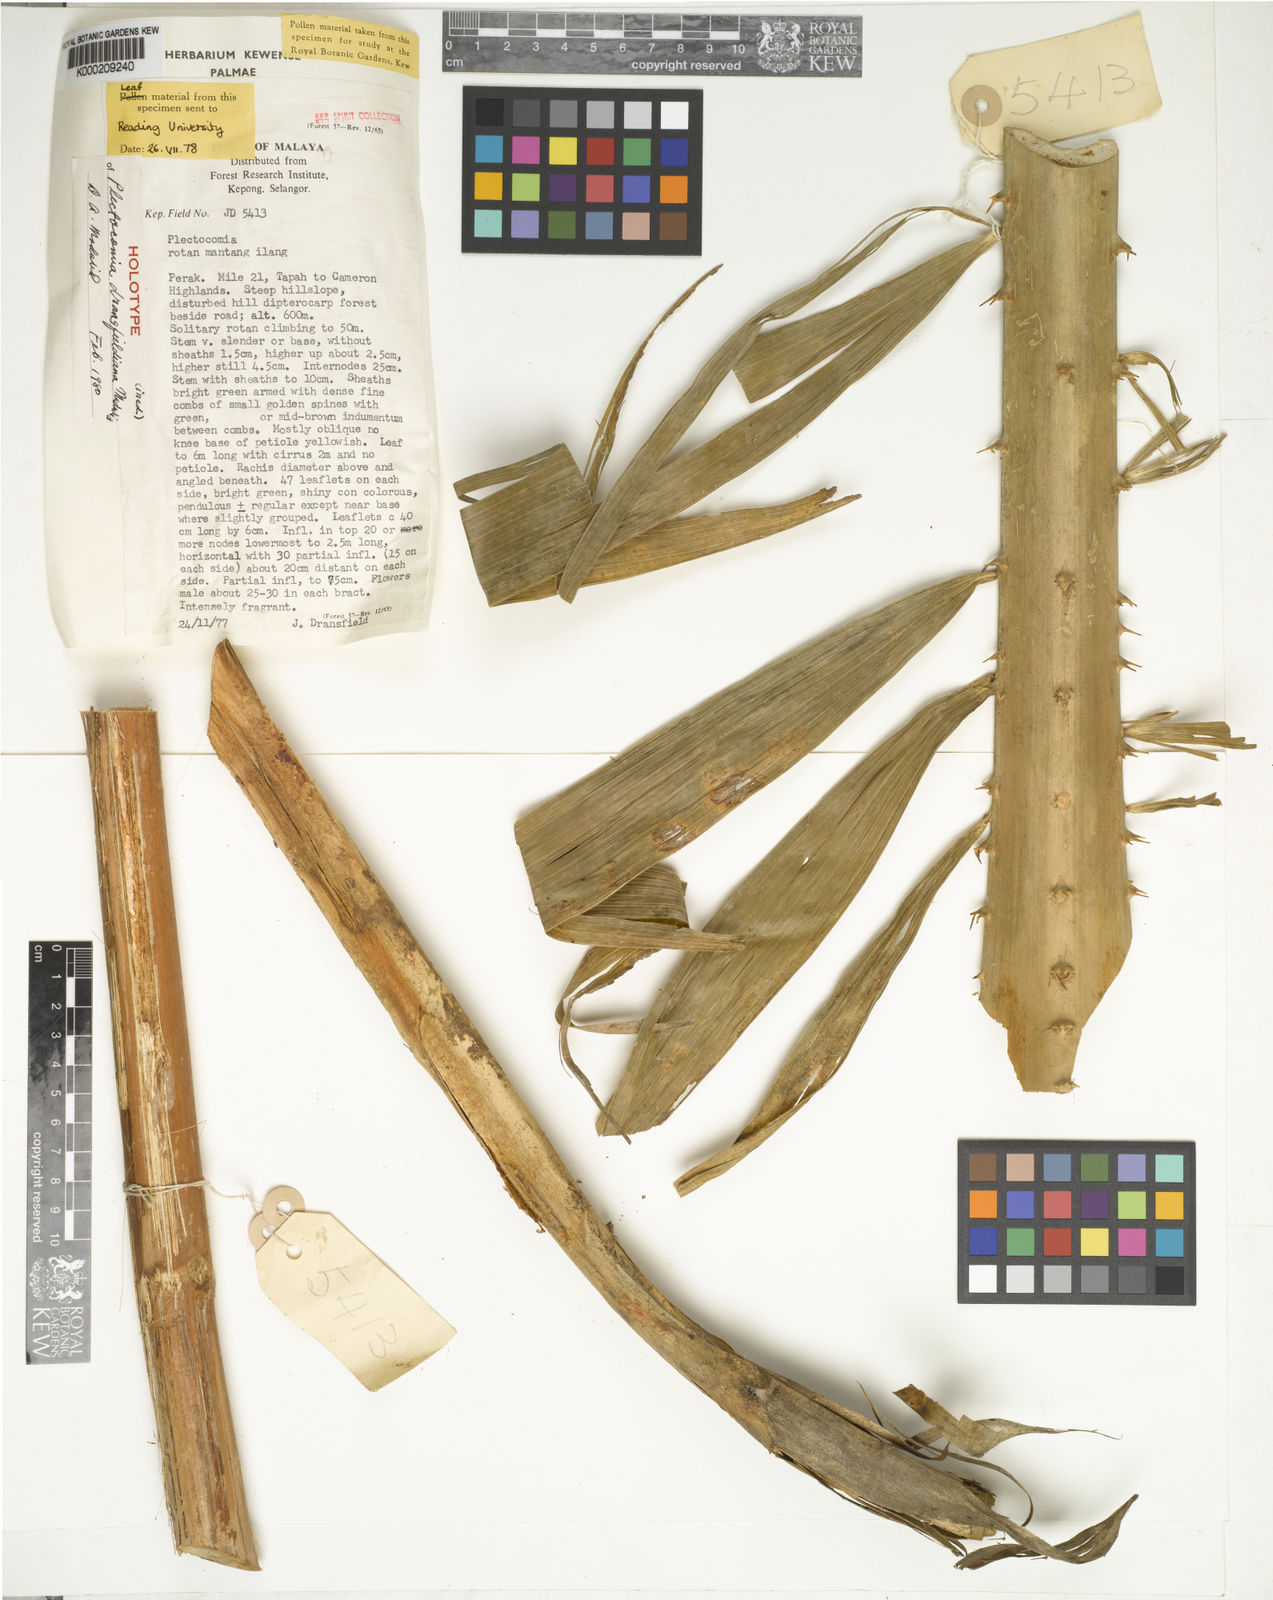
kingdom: Plantae
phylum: Tracheophyta
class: Liliopsida
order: Arecales
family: Arecaceae
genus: Plectocomia
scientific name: Plectocomia dransfieldiana
